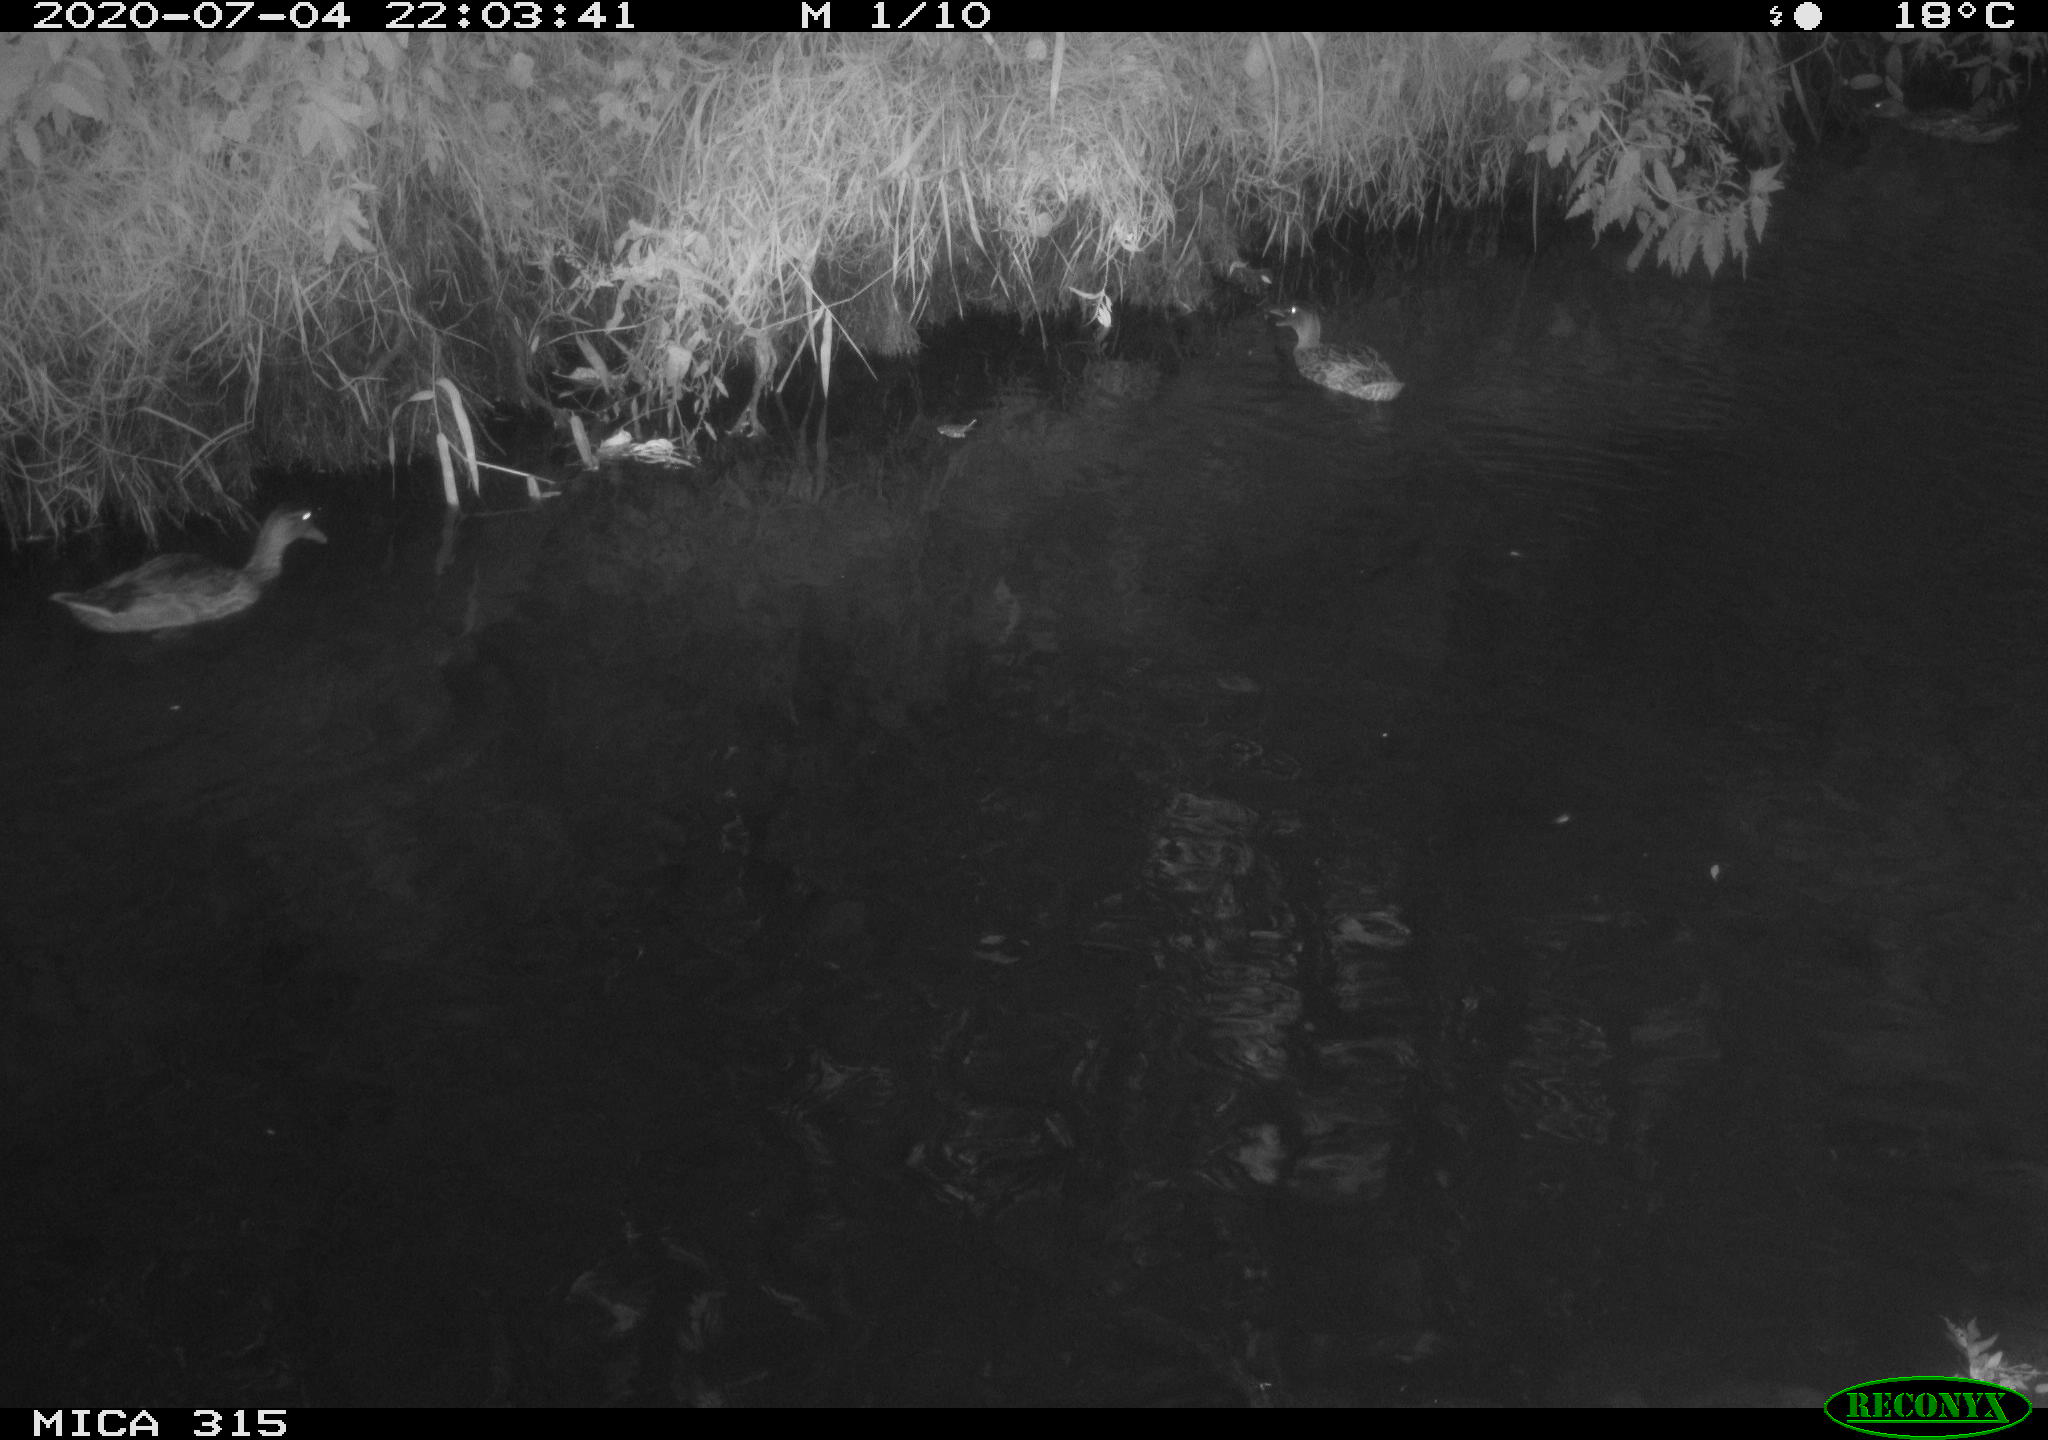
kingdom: Animalia
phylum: Chordata
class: Aves
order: Anseriformes
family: Anatidae
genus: Anas
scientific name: Anas platyrhynchos
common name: Mallard
